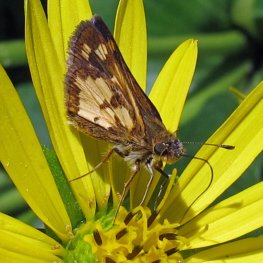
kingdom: Animalia
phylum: Arthropoda
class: Insecta
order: Lepidoptera
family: Hesperiidae
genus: Polites
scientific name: Polites coras
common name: Peck's Skipper
